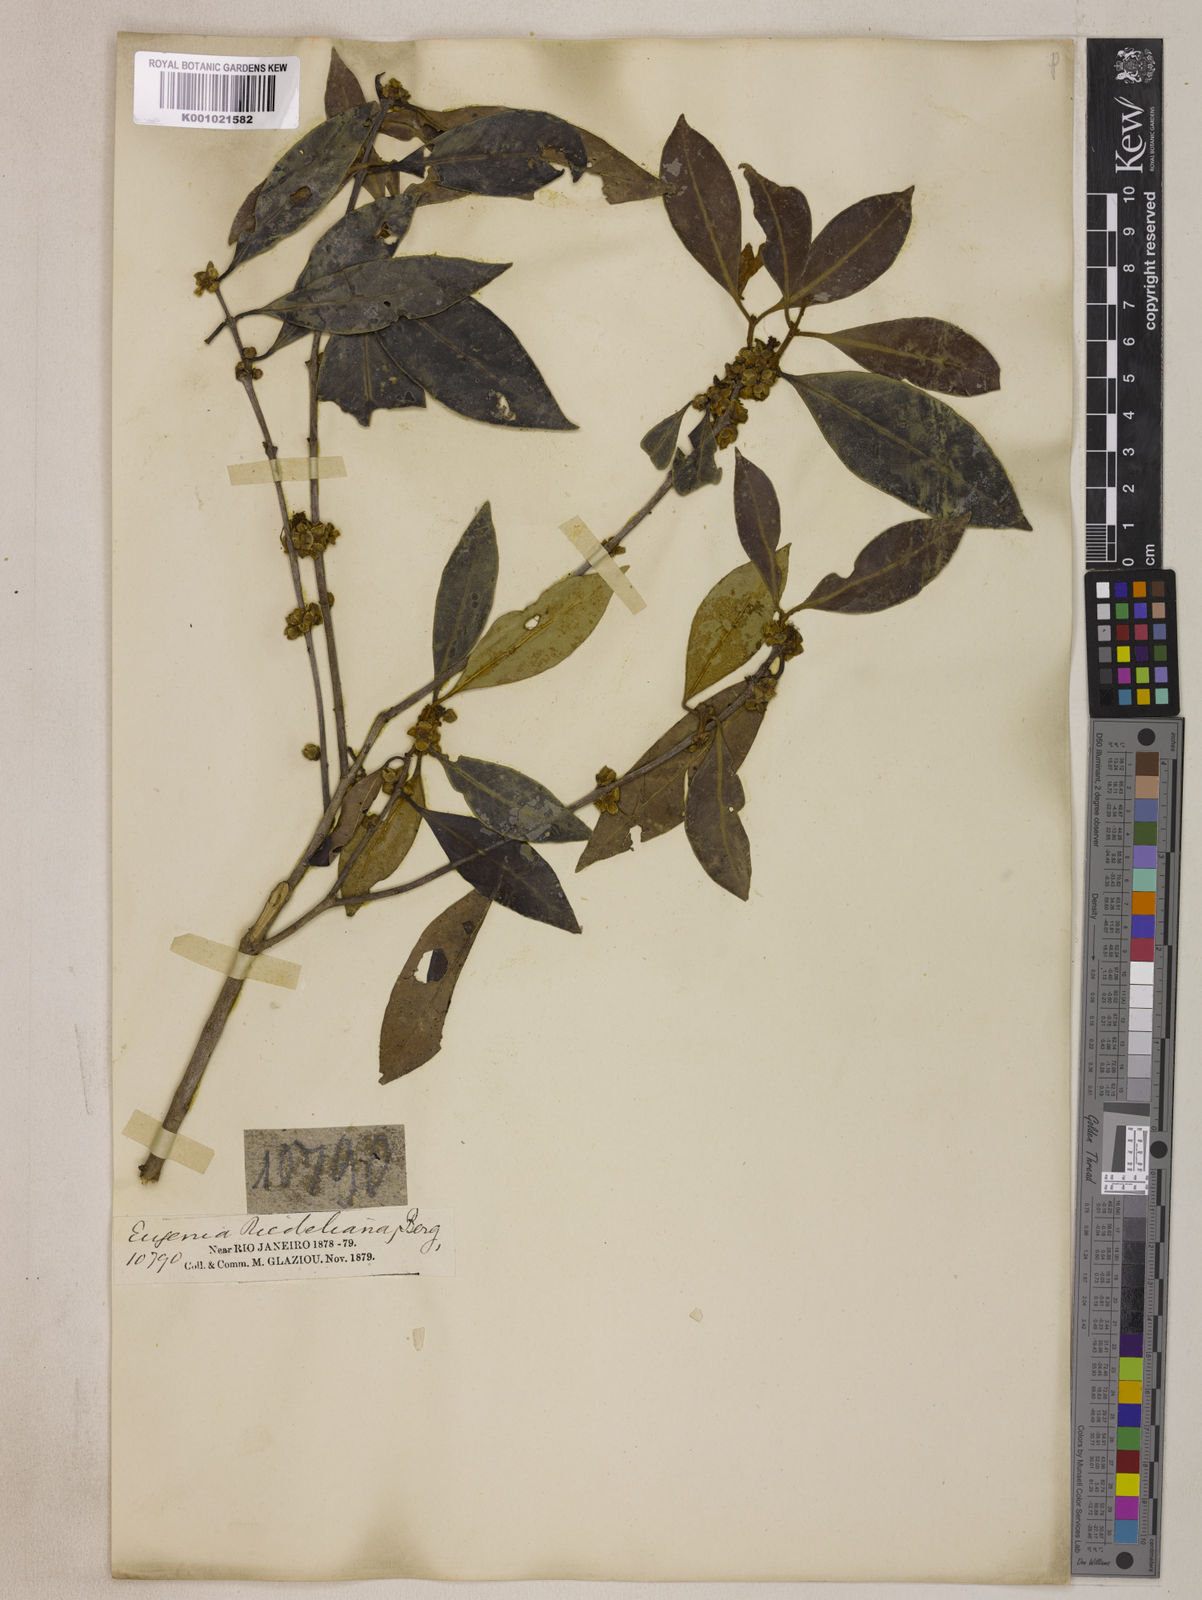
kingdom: Plantae
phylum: Tracheophyta
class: Magnoliopsida
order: Myrtales
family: Myrtaceae
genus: Eugenia
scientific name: Eugenia verticillata
